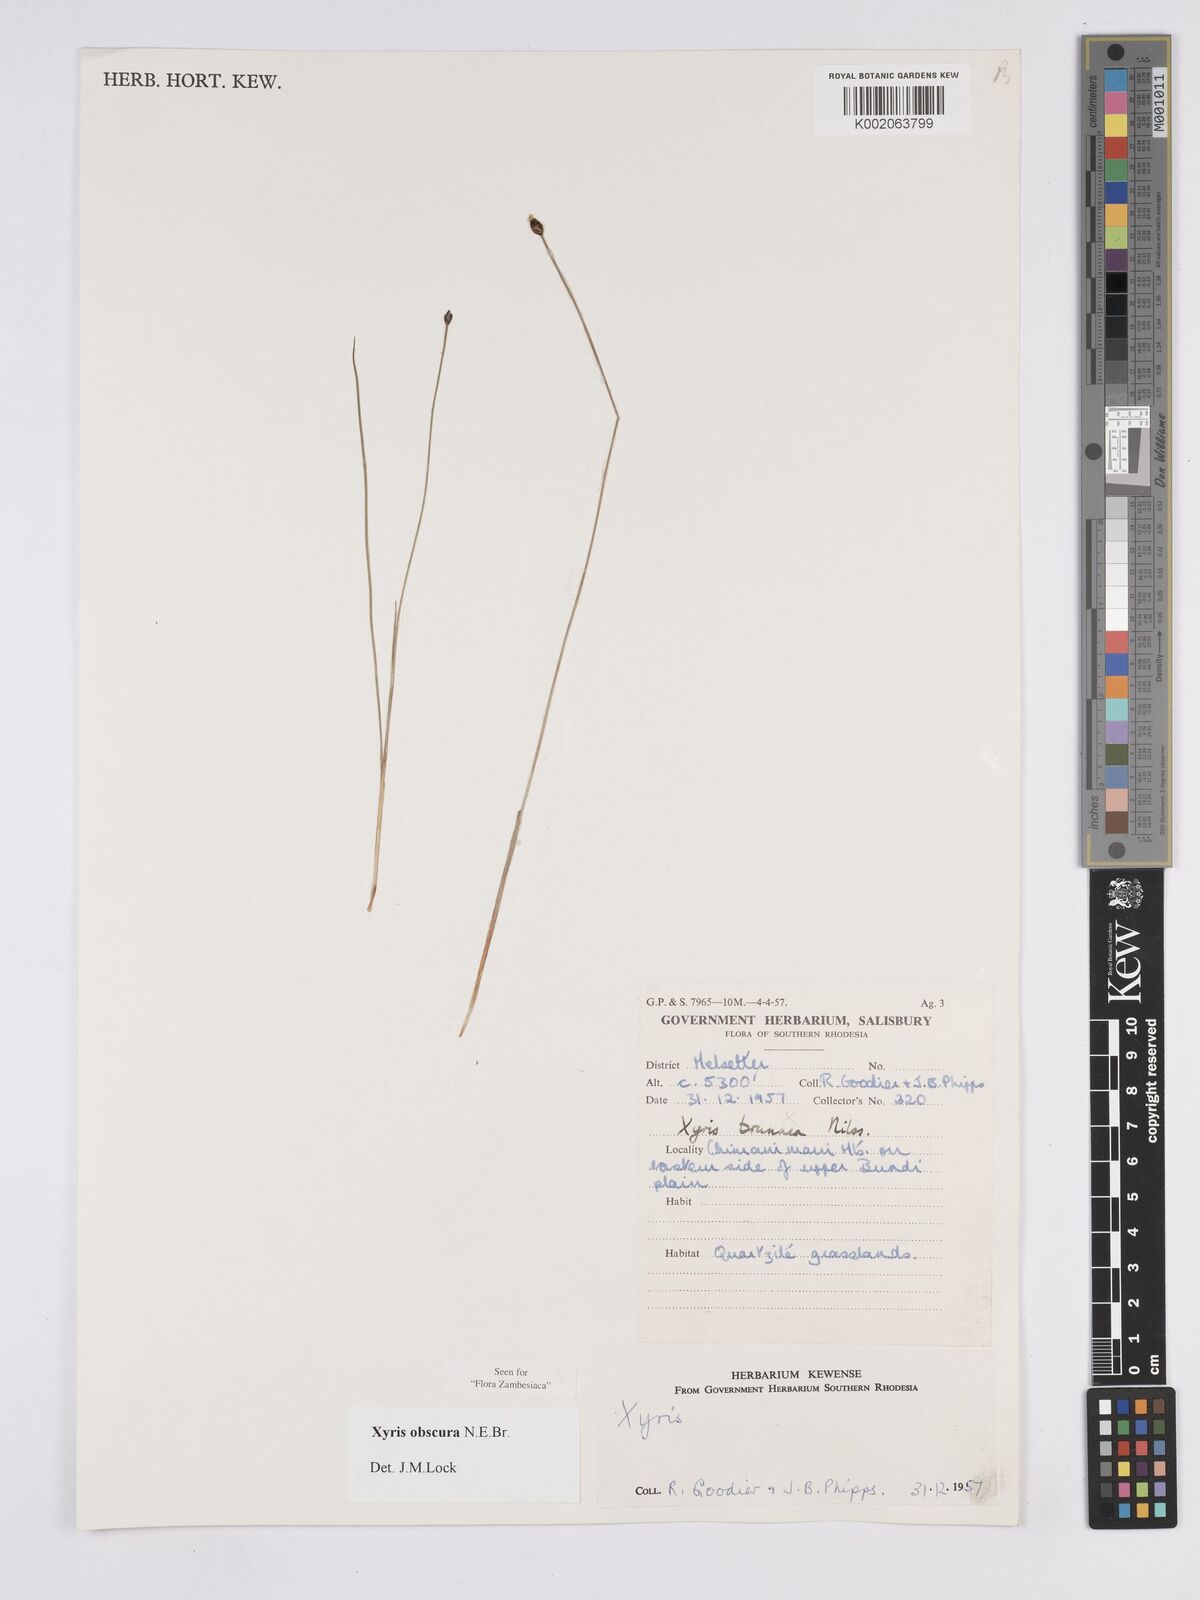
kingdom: Plantae
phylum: Tracheophyta
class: Liliopsida
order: Poales
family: Xyridaceae
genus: Xyris
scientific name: Xyris obscura
